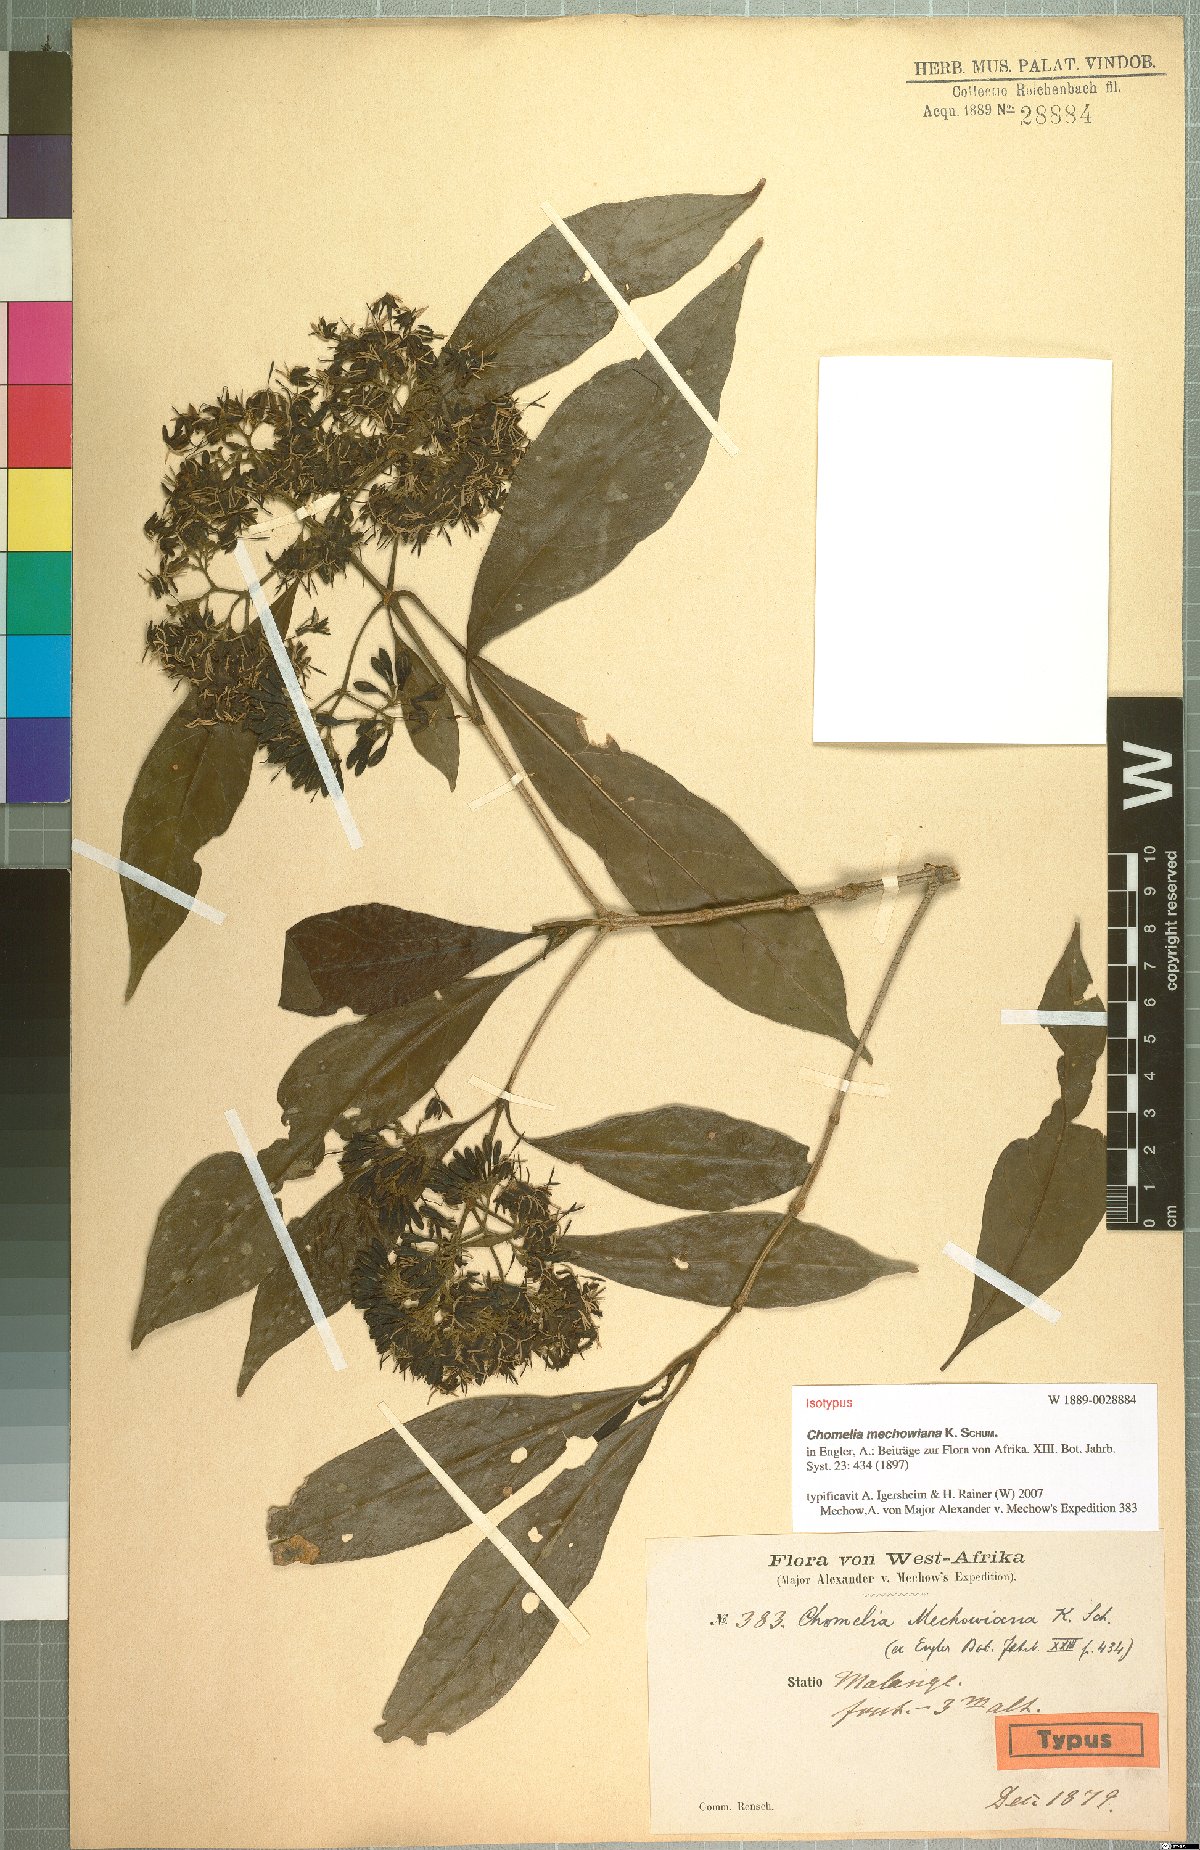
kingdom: Plantae
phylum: Tracheophyta
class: Magnoliopsida
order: Gentianales
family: Rubiaceae
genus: Chomelia
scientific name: Chomelia mechowiana
